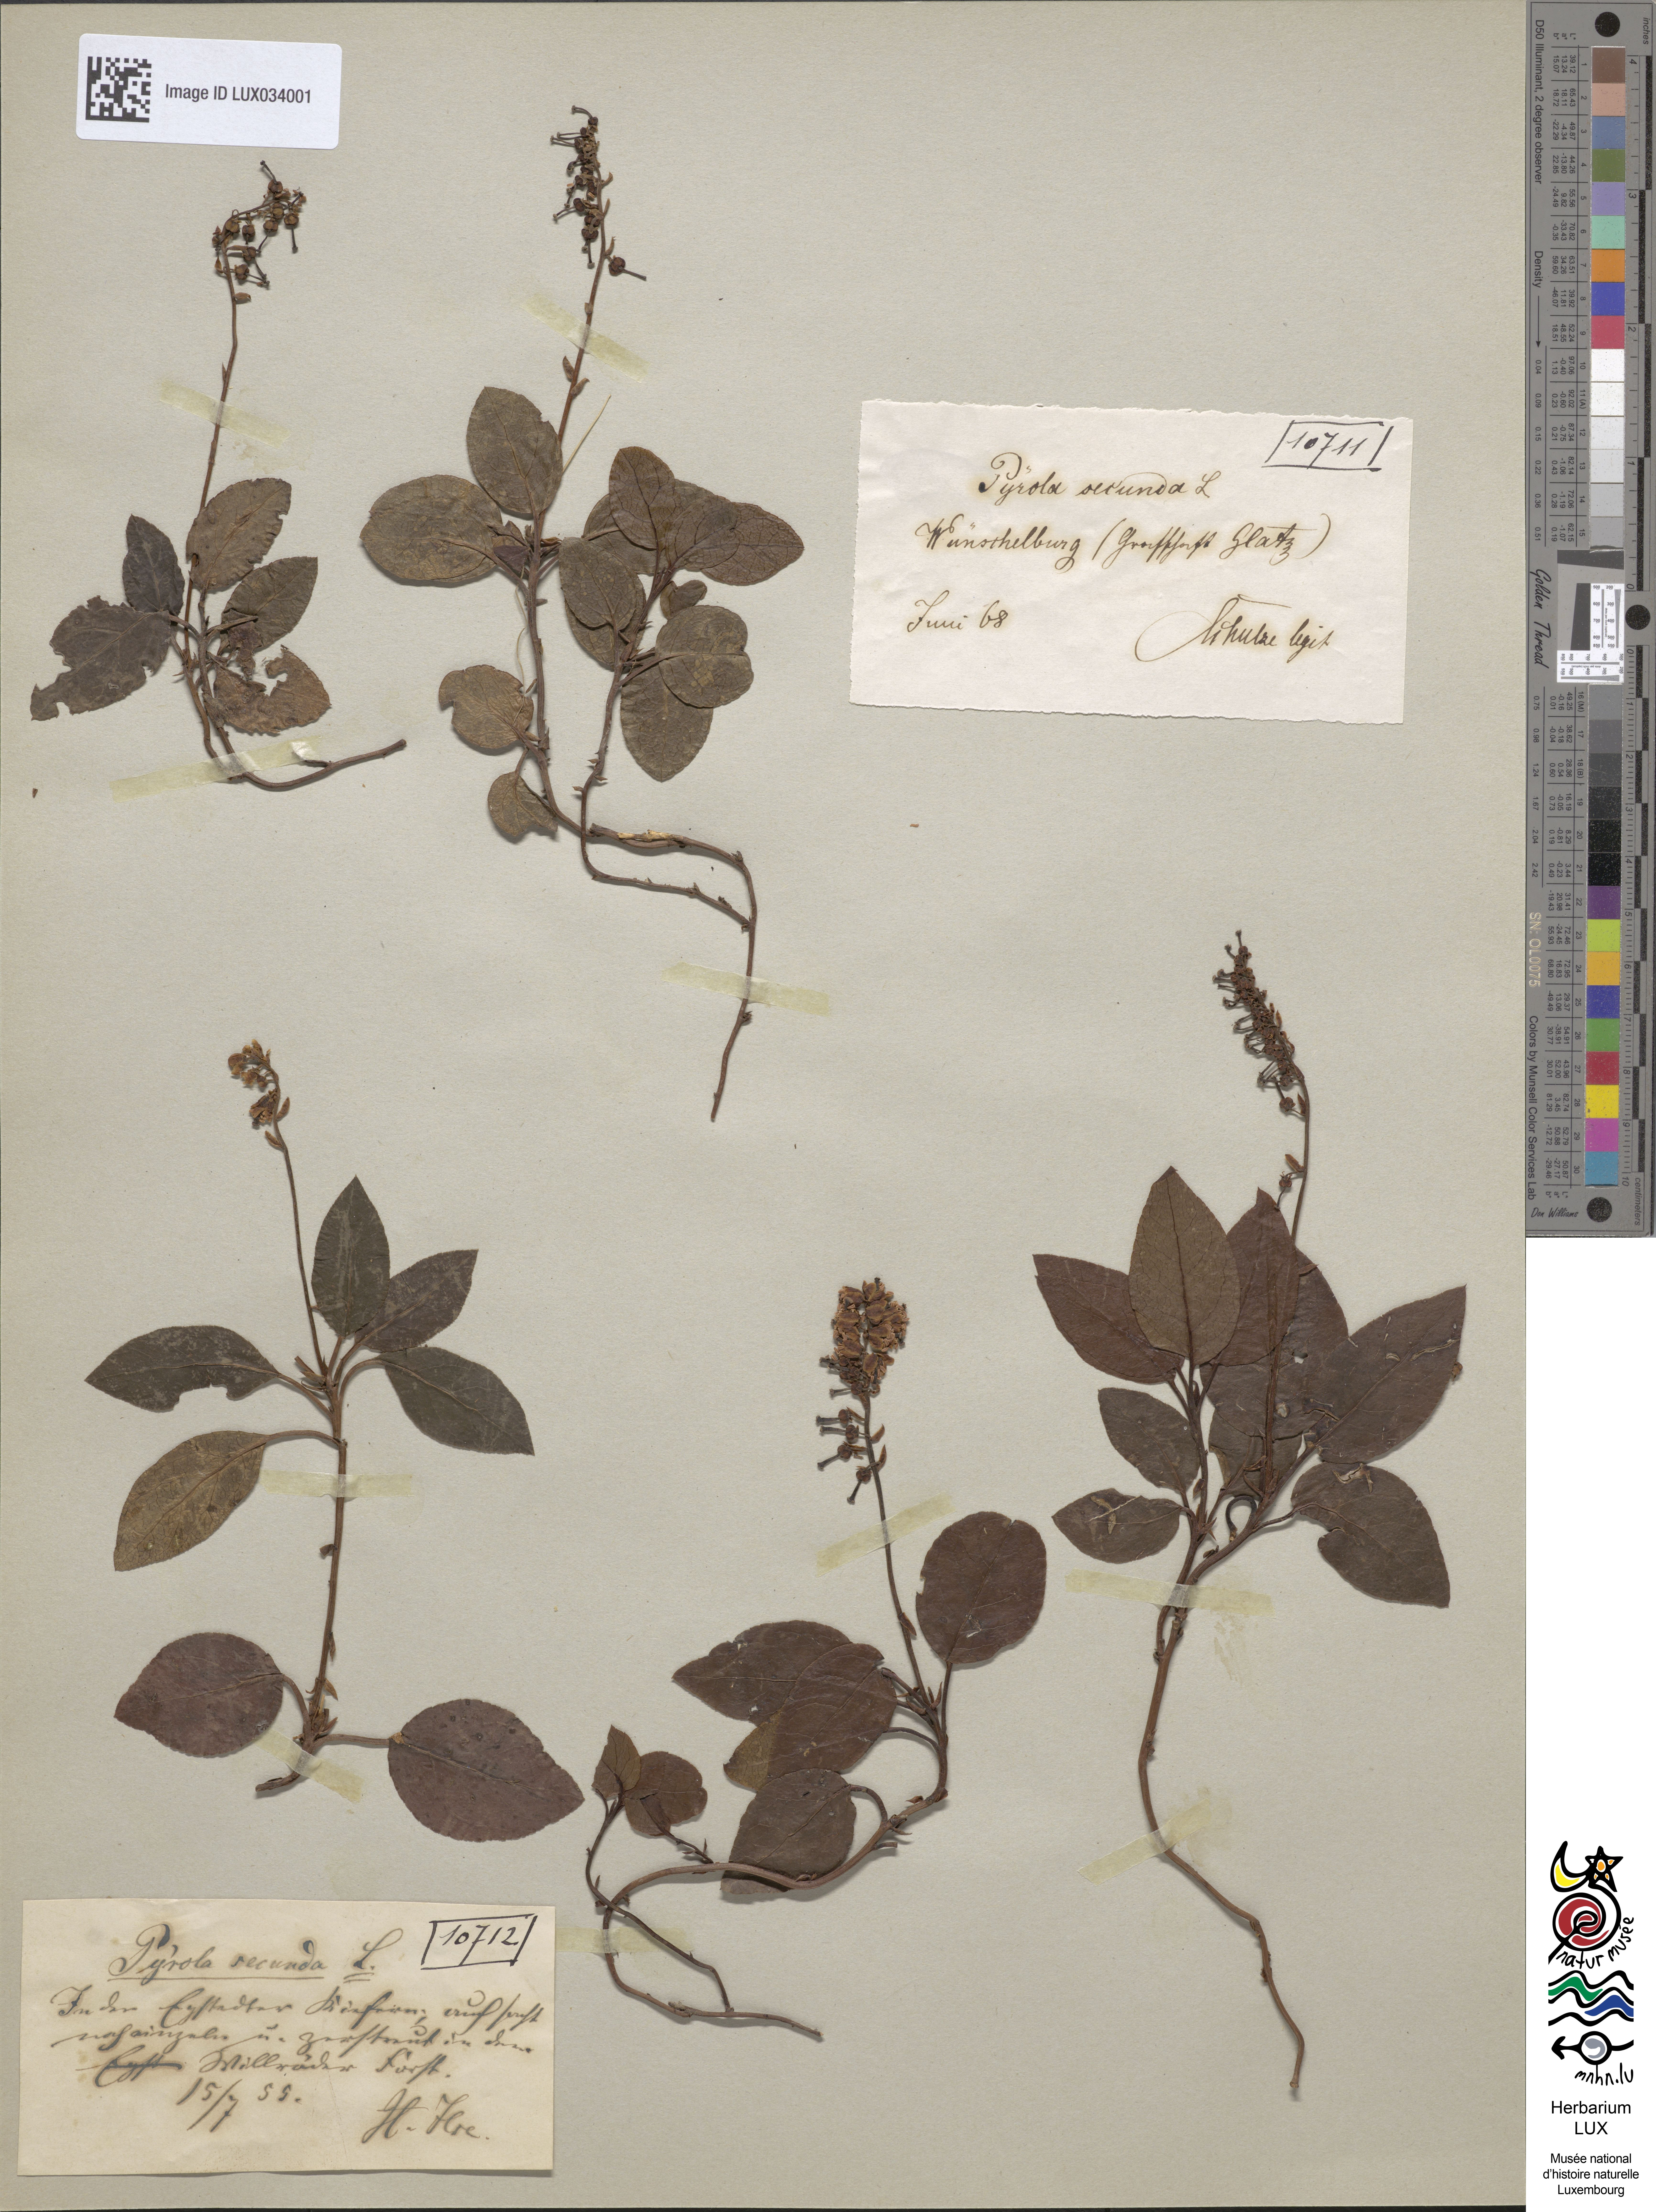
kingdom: Plantae
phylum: Tracheophyta
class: Magnoliopsida
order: Ericales
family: Ericaceae
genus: Orthilia
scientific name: Orthilia secunda
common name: One-sided orthilia
